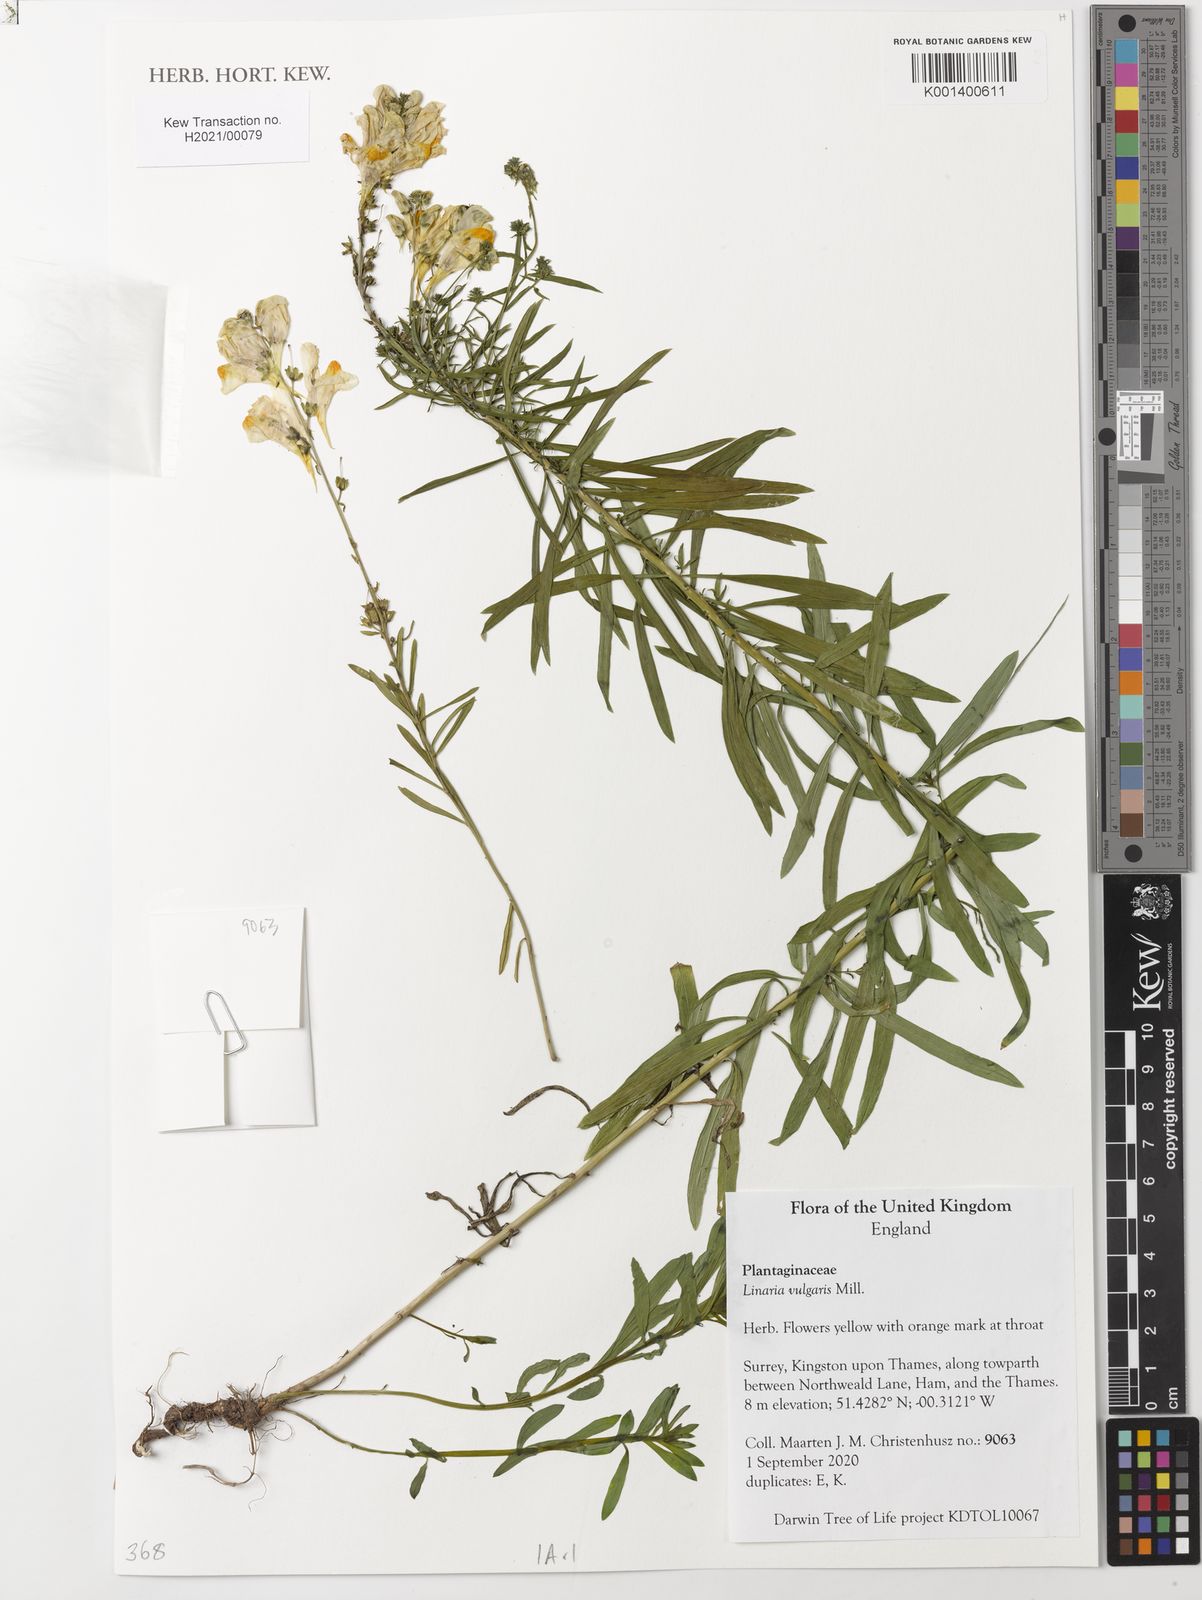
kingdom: Plantae
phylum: Tracheophyta
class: Magnoliopsida
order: Lamiales
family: Plantaginaceae
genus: Linaria
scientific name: Linaria vulgaris
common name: Butter and eggs
